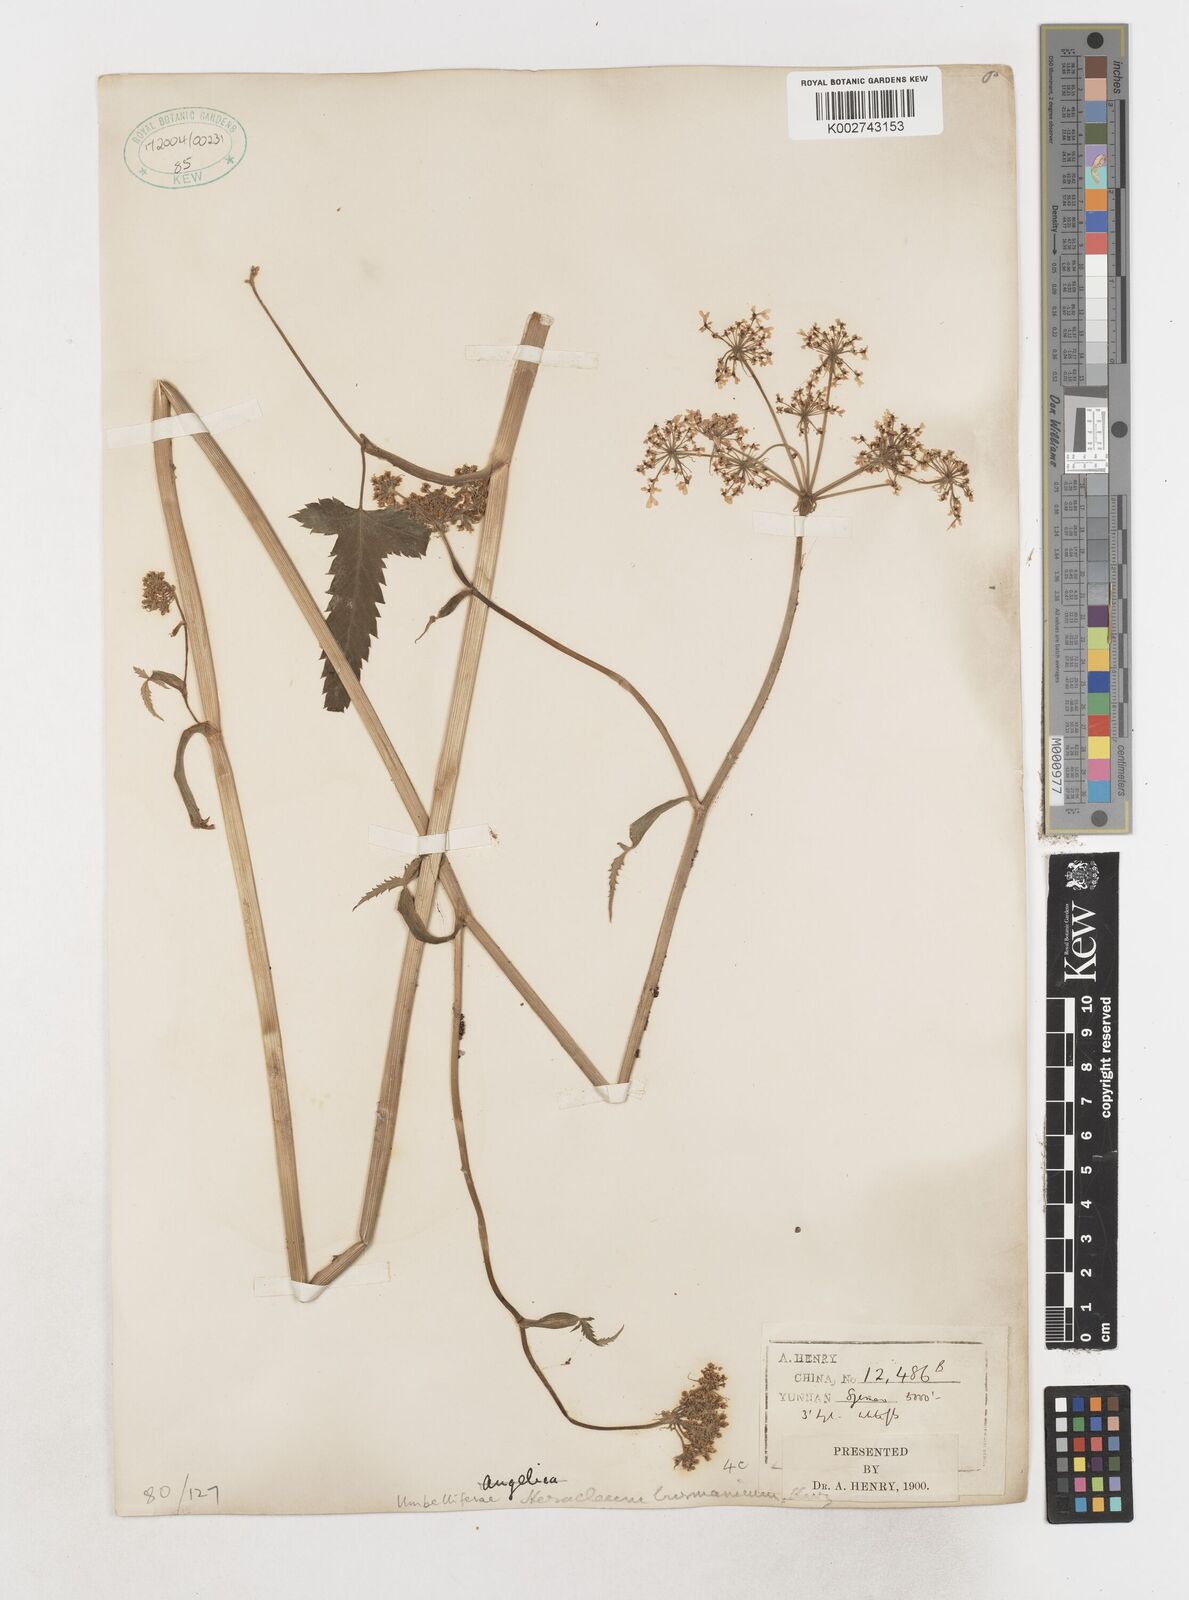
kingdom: Plantae
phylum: Tracheophyta
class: Magnoliopsida
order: Apiales
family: Apiaceae
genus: Tetrataenium
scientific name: Tetrataenium birmanicum
